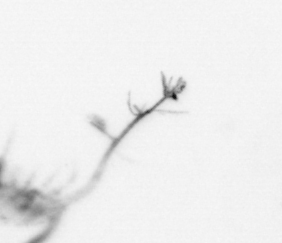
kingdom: Animalia
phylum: Arthropoda
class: Maxillopoda
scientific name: Maxillopoda
